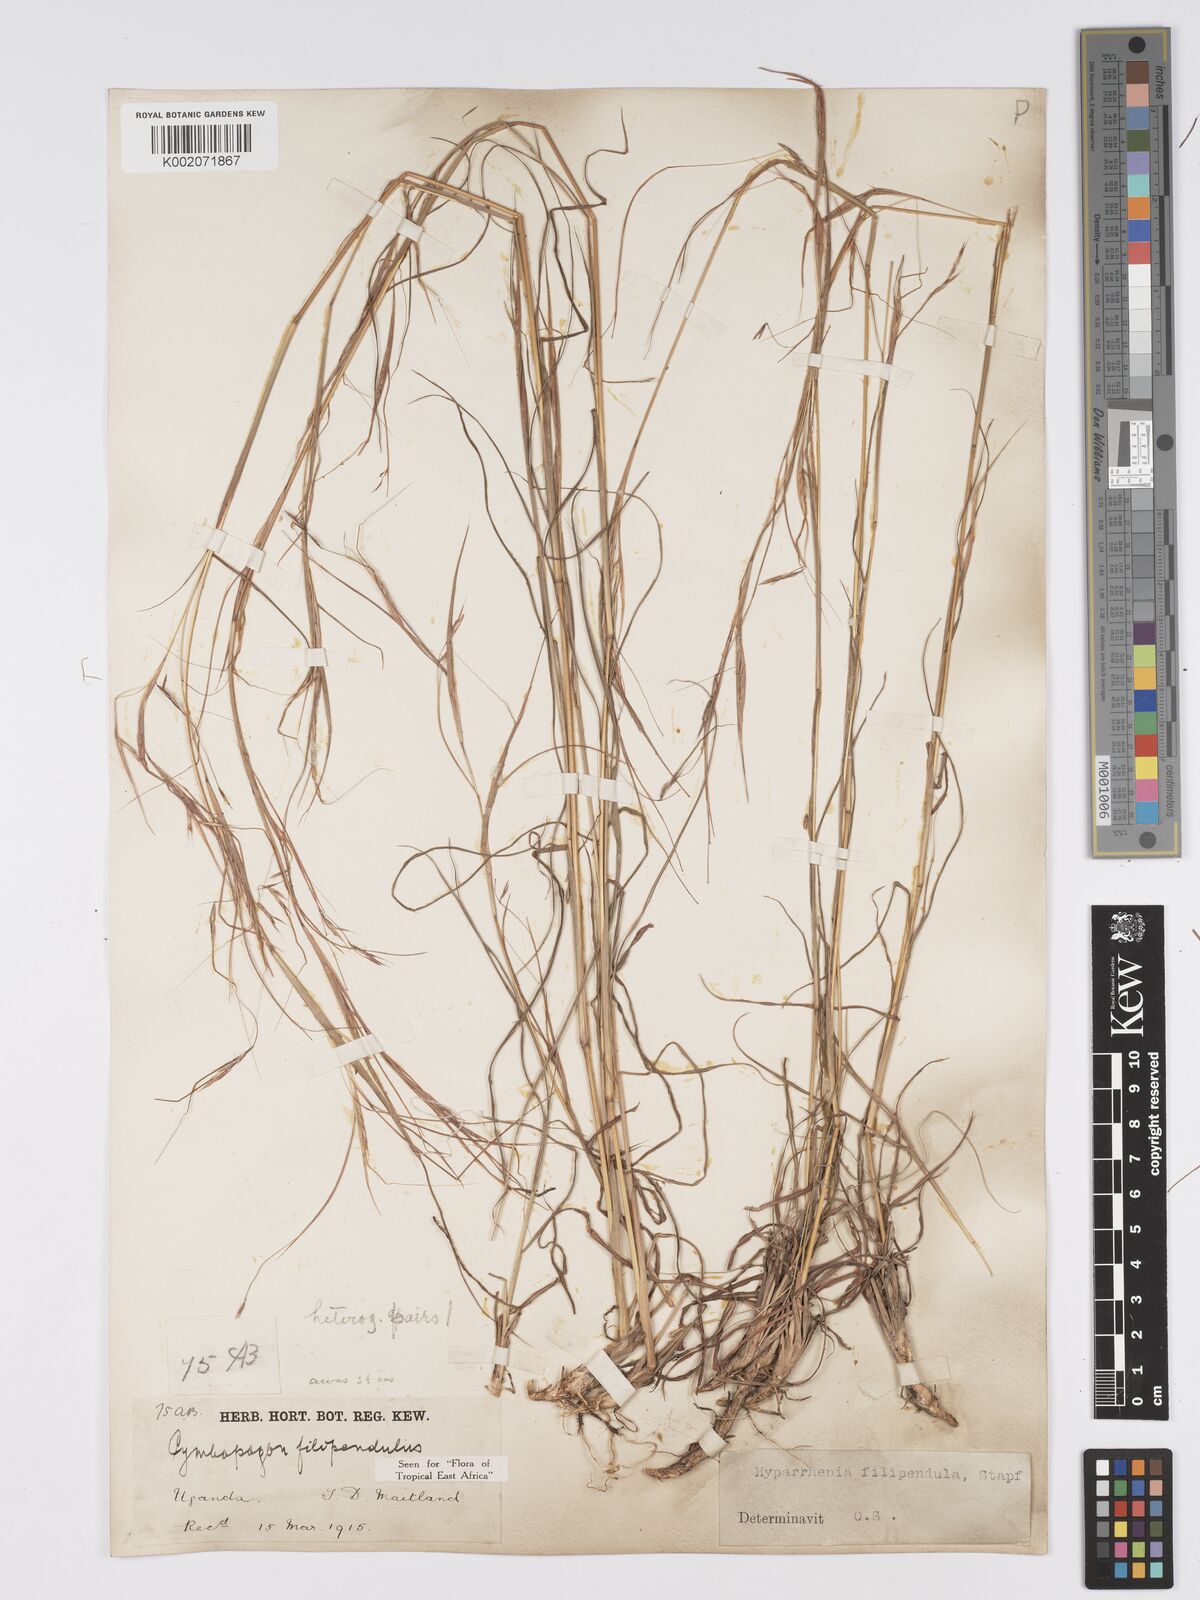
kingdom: Plantae
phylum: Tracheophyta
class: Liliopsida
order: Poales
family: Poaceae
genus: Hyparrhenia
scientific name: Hyparrhenia filipendula
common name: Tambookie grass
